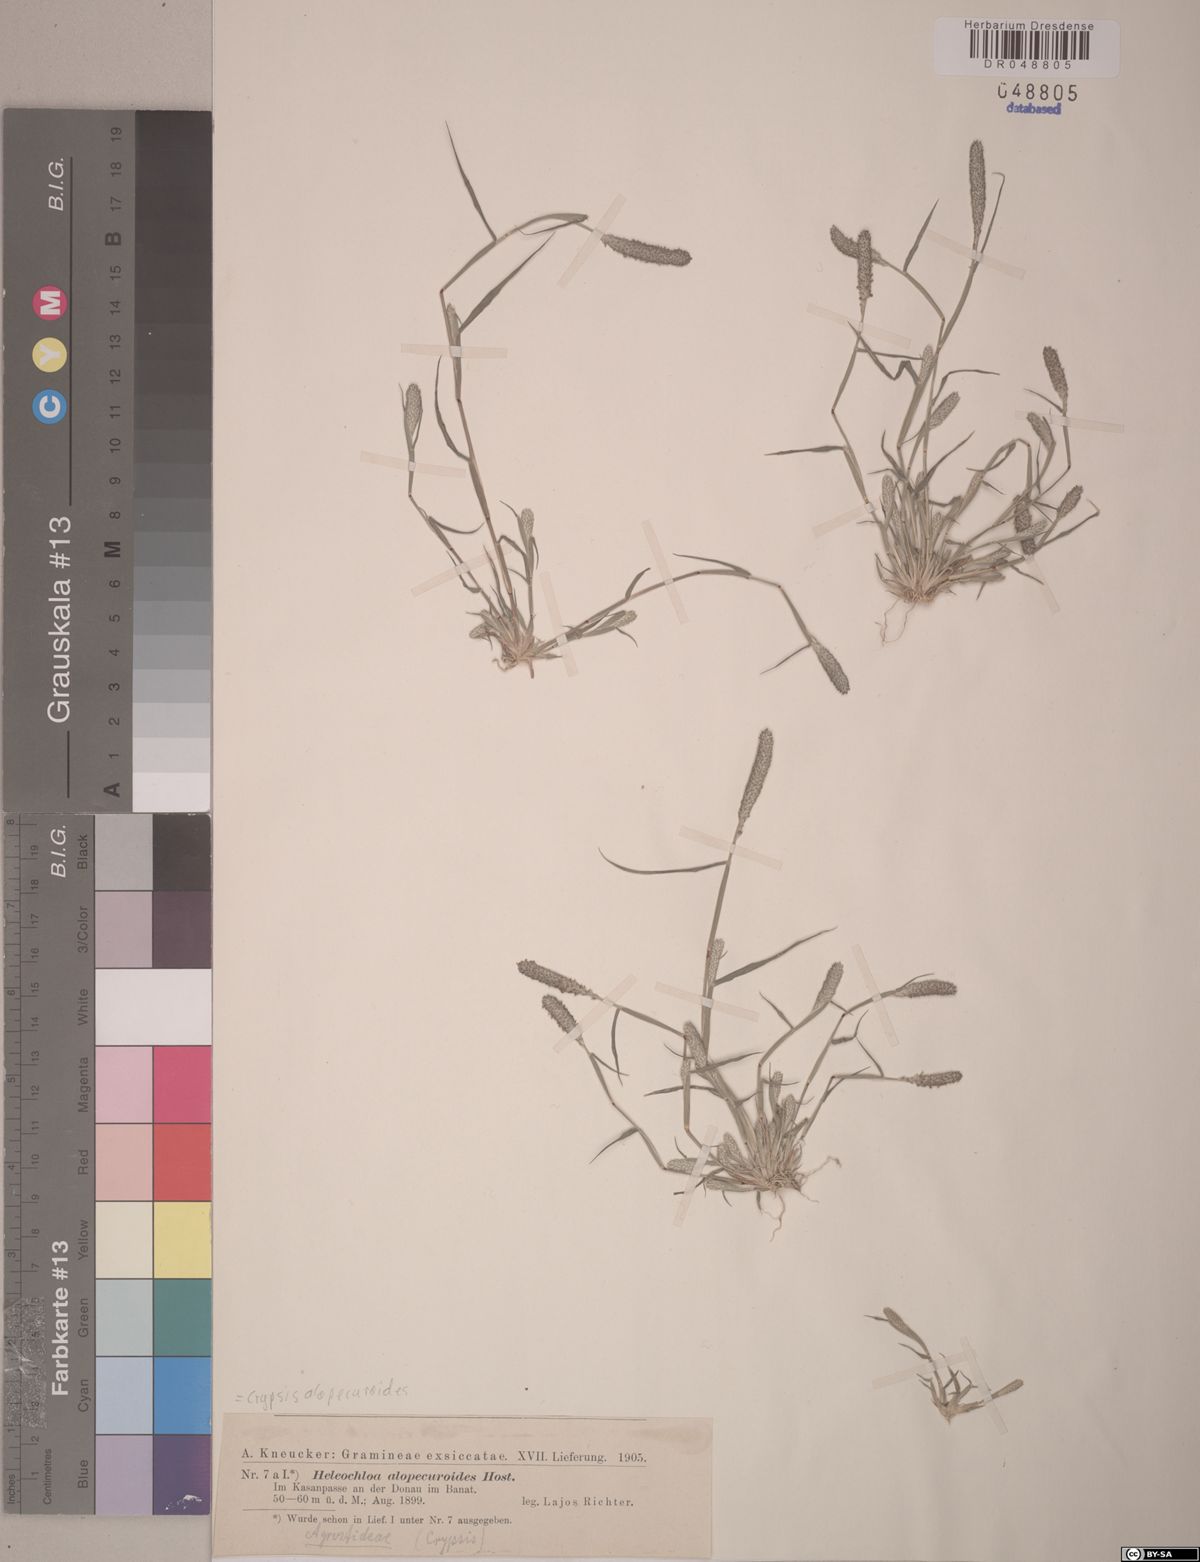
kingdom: Plantae
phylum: Tracheophyta
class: Liliopsida
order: Poales
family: Poaceae
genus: Sporobolus
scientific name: Sporobolus alopecuroides
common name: Foxtail pricklegrass
